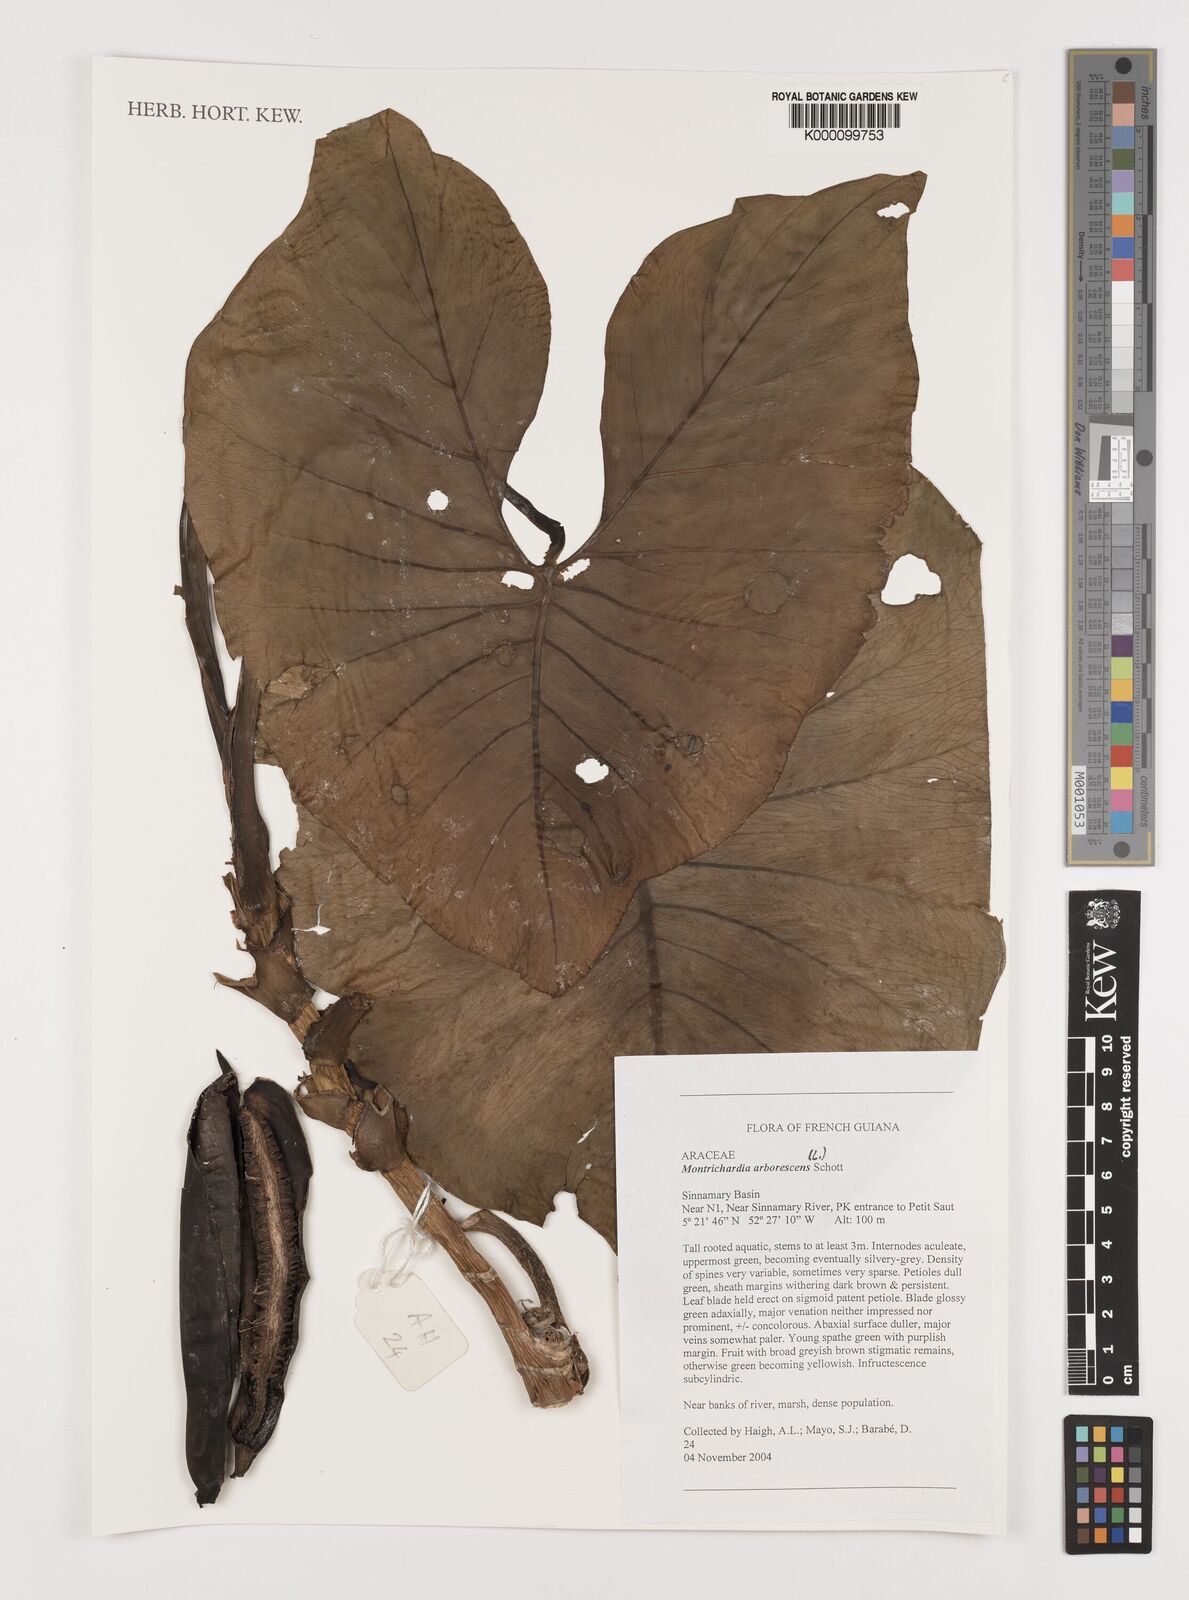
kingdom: Plantae
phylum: Tracheophyta
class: Liliopsida
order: Alismatales
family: Araceae
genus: Montrichardia
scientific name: Montrichardia arborescens
